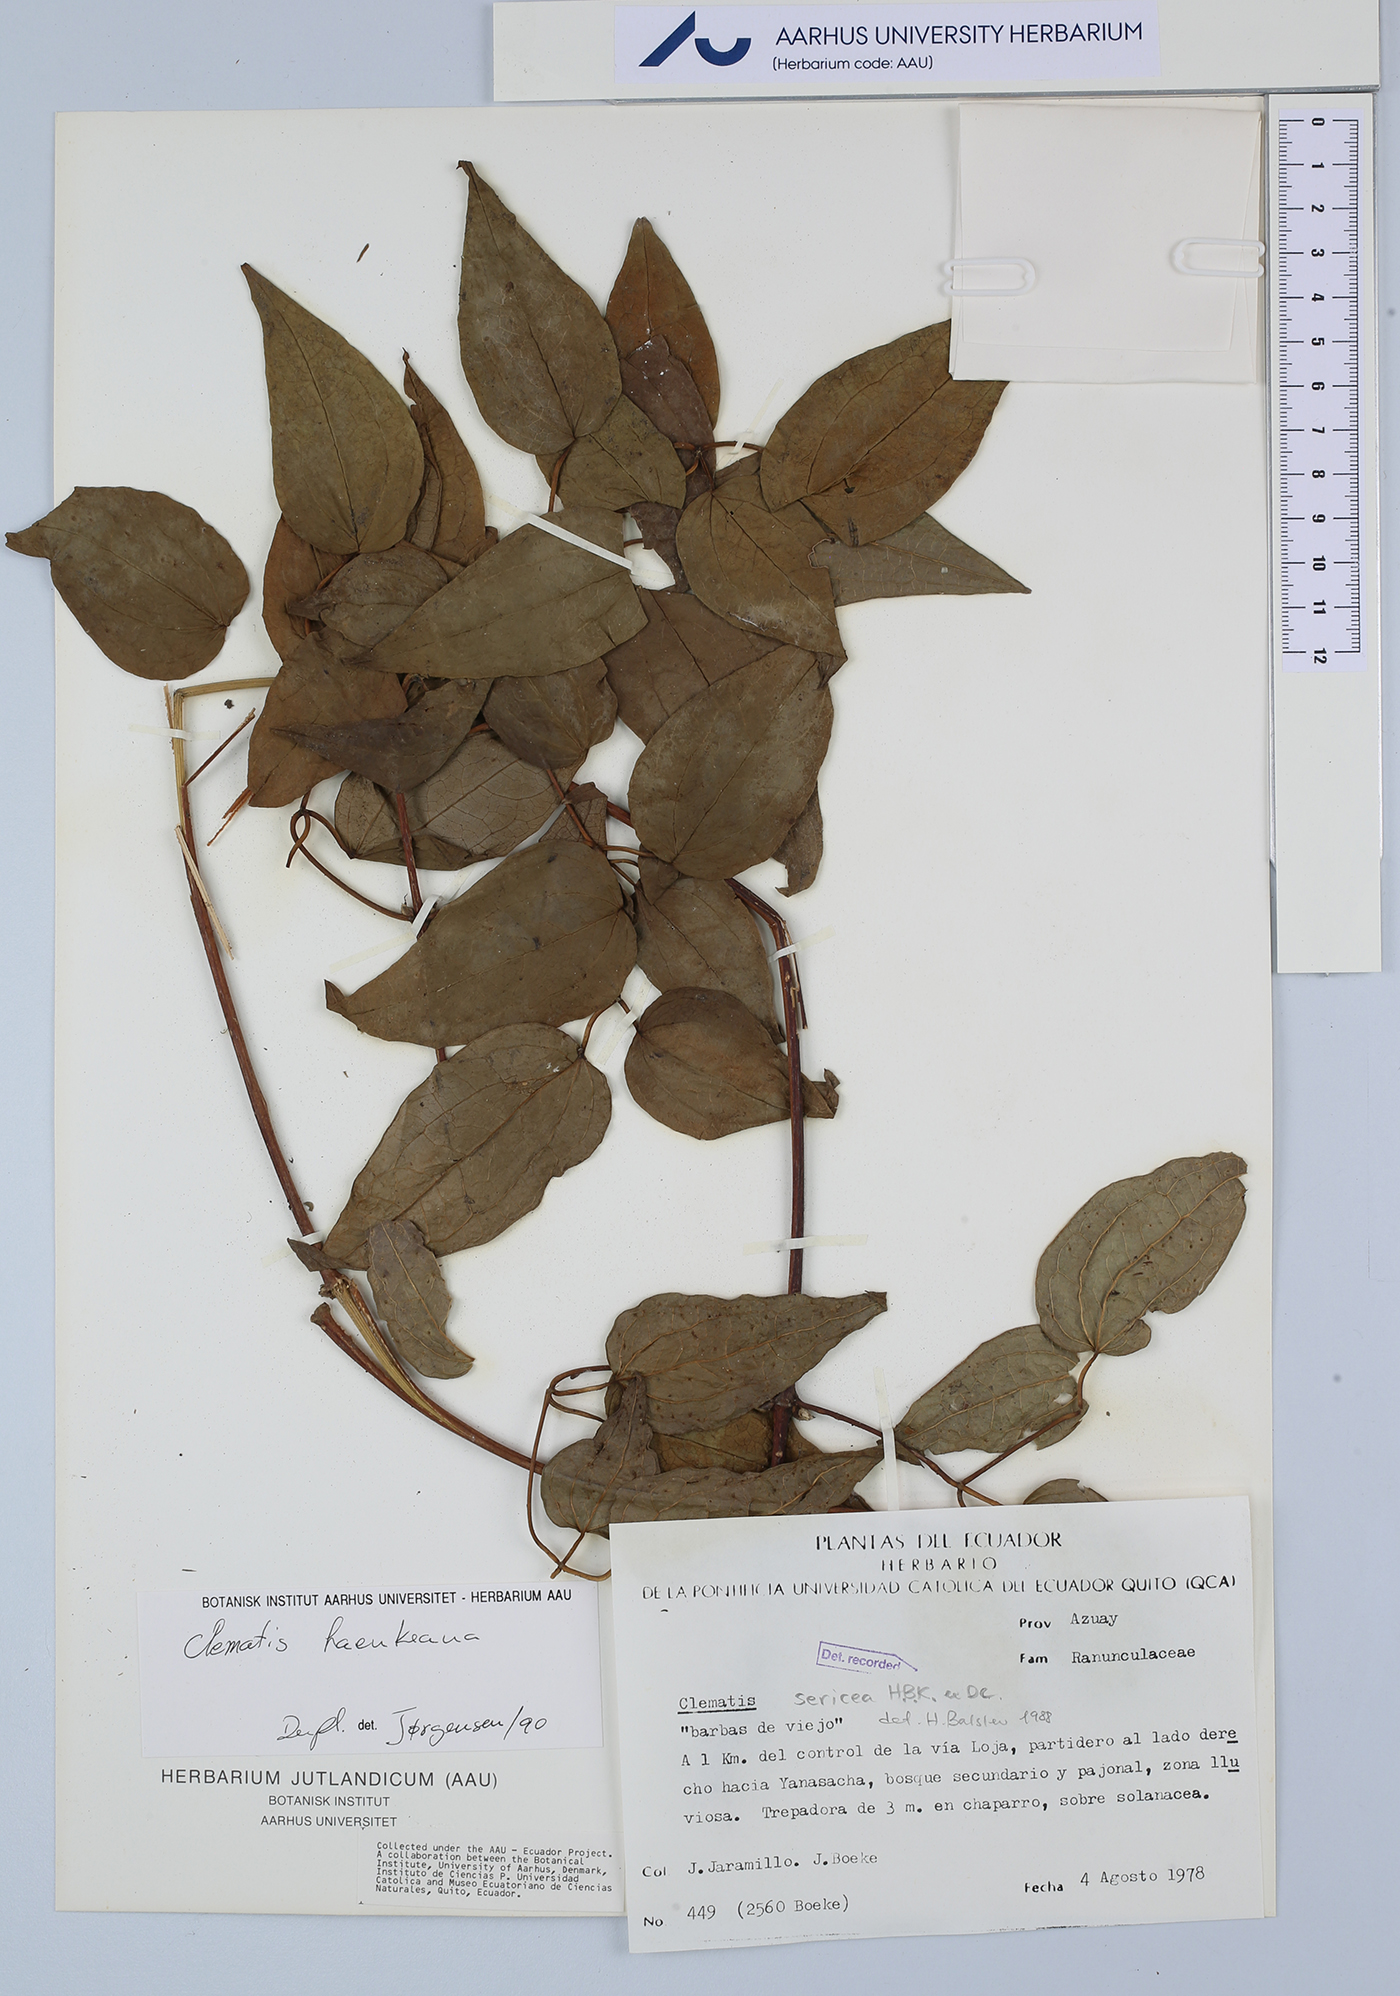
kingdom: Plantae
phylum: Tracheophyta
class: Magnoliopsida
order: Ranunculales
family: Ranunculaceae
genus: Clematis
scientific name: Clematis haenkeana
